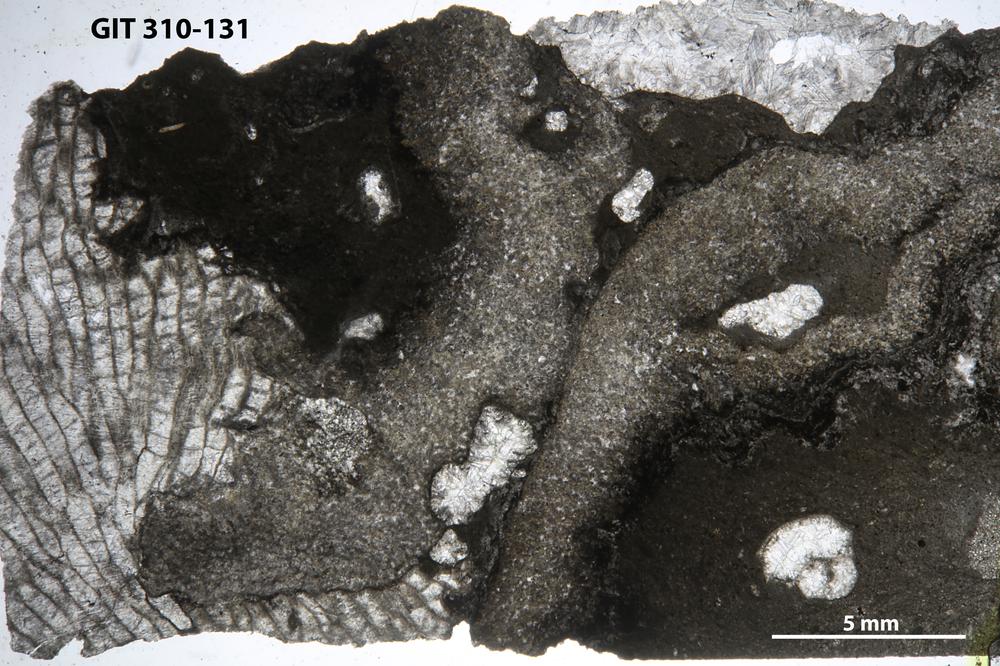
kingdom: Animalia
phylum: Porifera
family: Stylostromatidae
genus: Pachystylostroma
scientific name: Pachystylostroma
